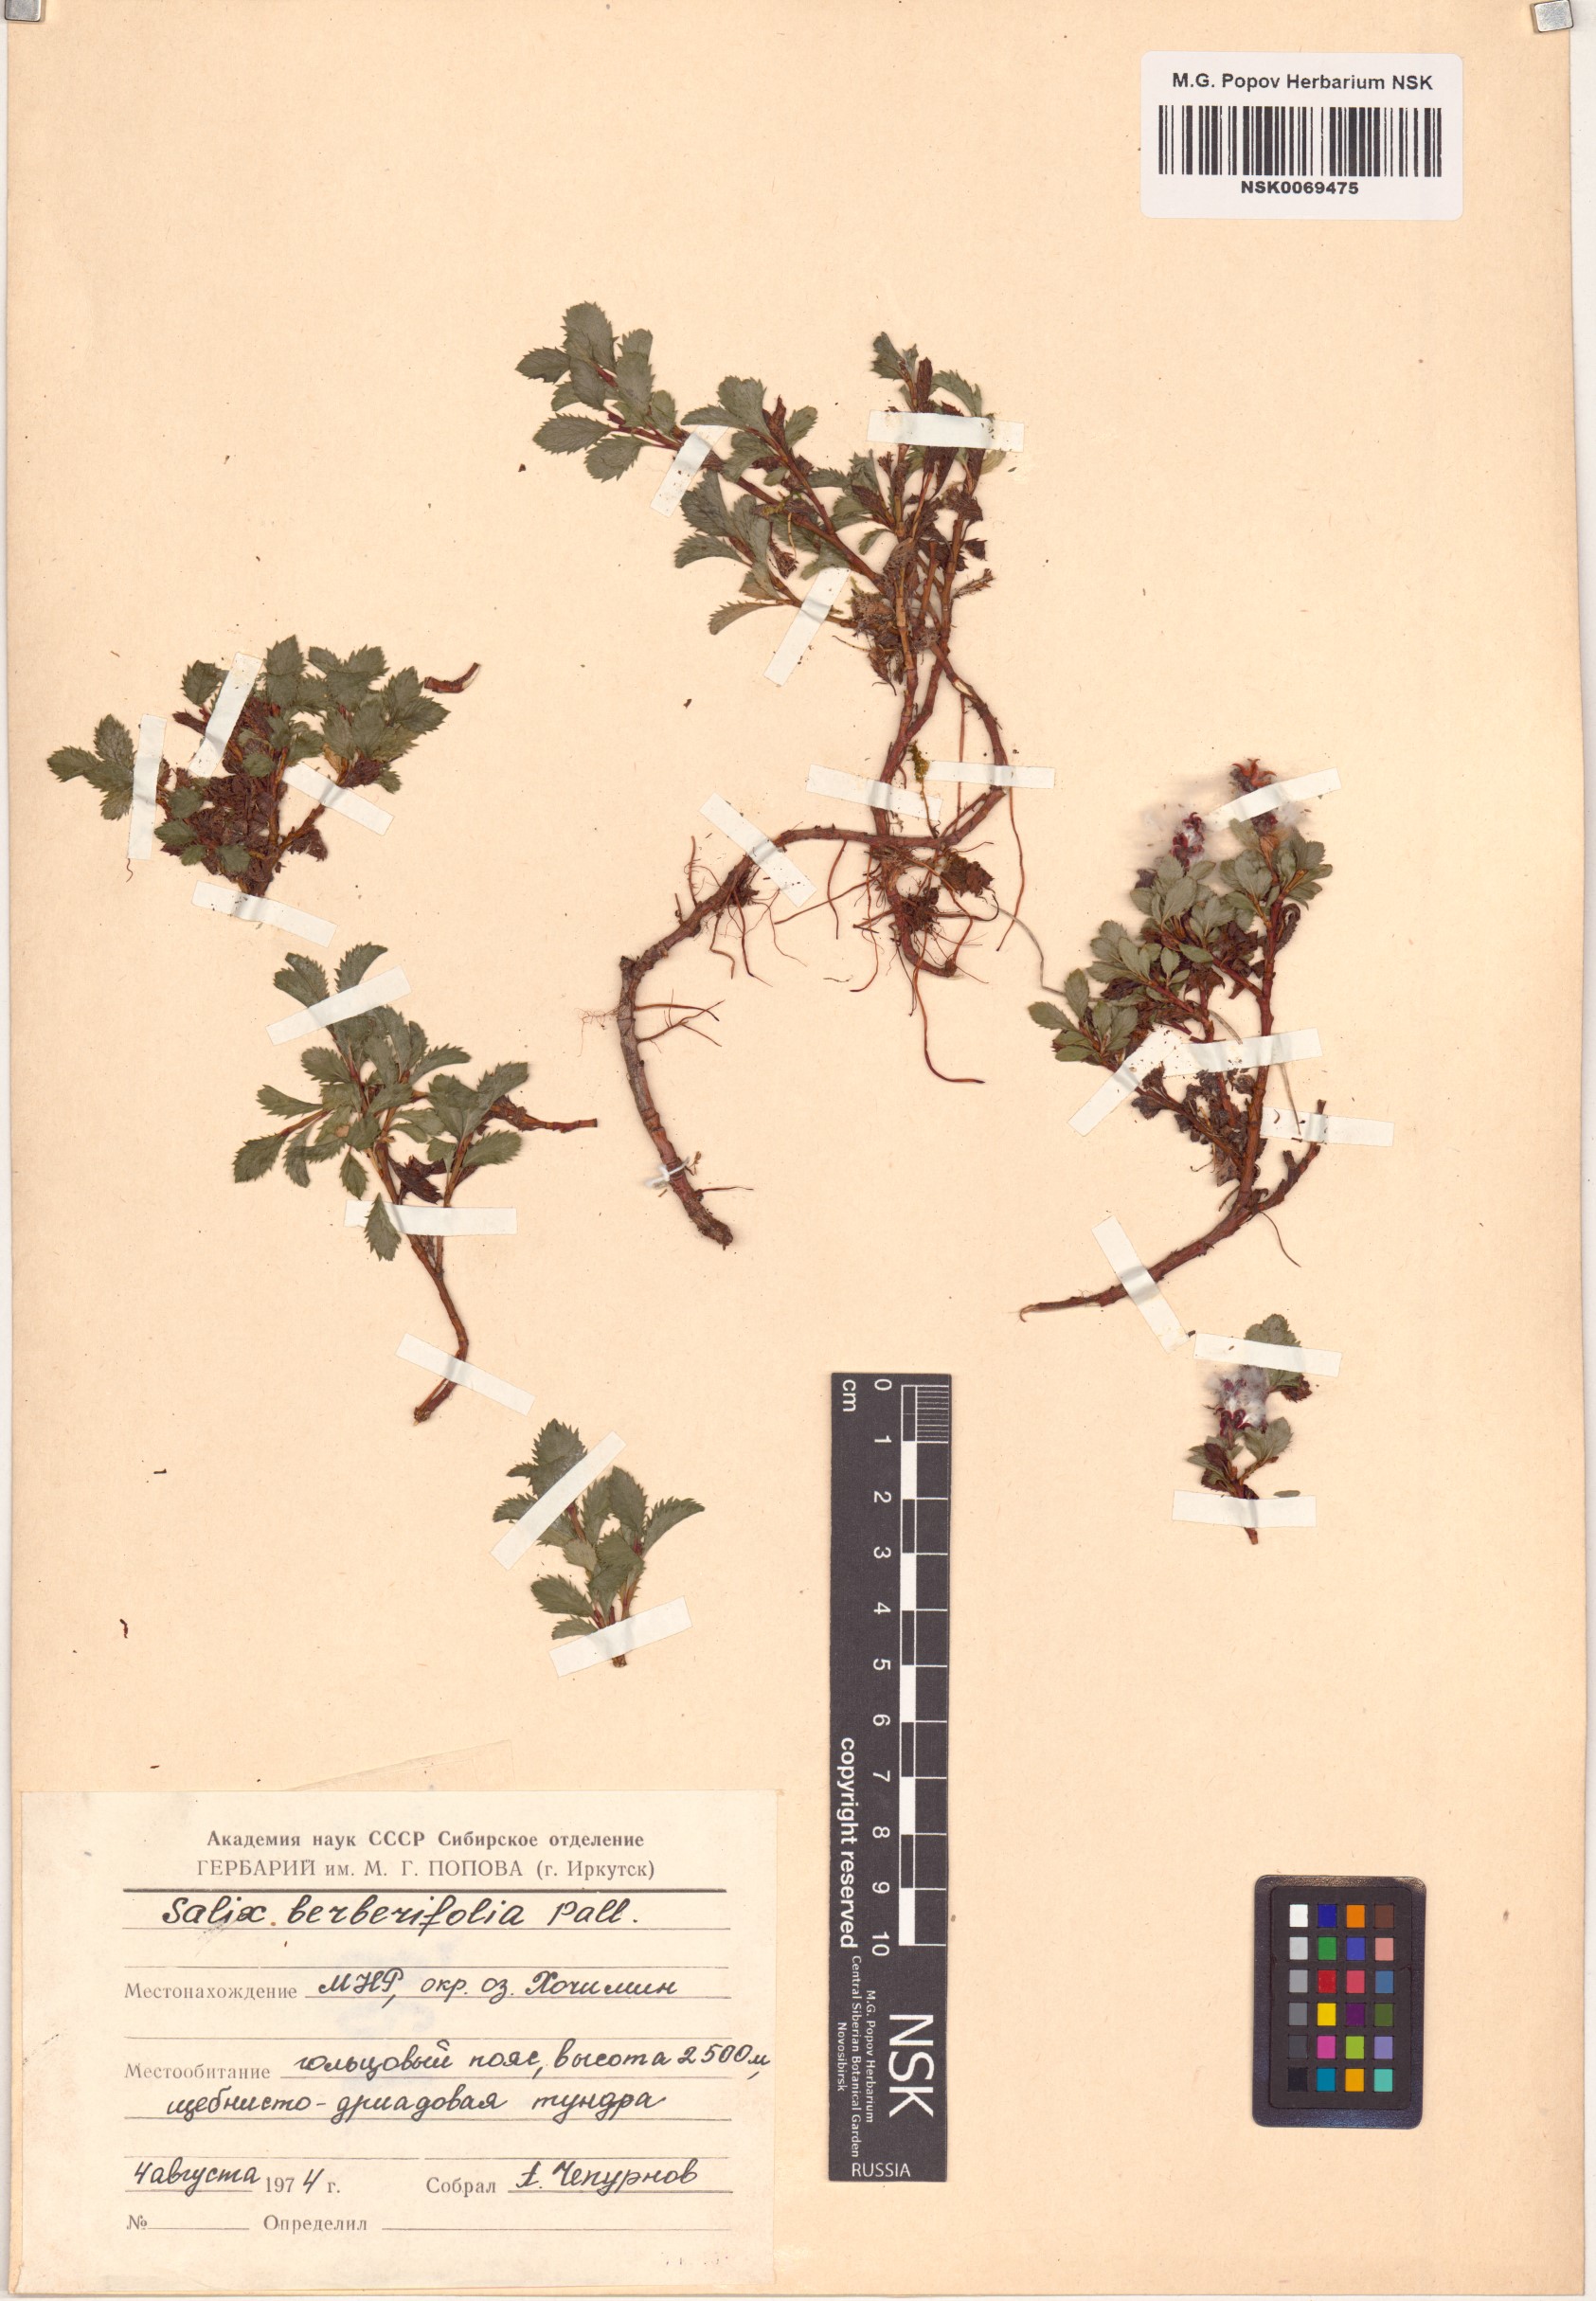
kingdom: Plantae
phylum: Tracheophyta
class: Magnoliopsida
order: Malpighiales
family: Salicaceae
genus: Salix
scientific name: Salix berberifolia
